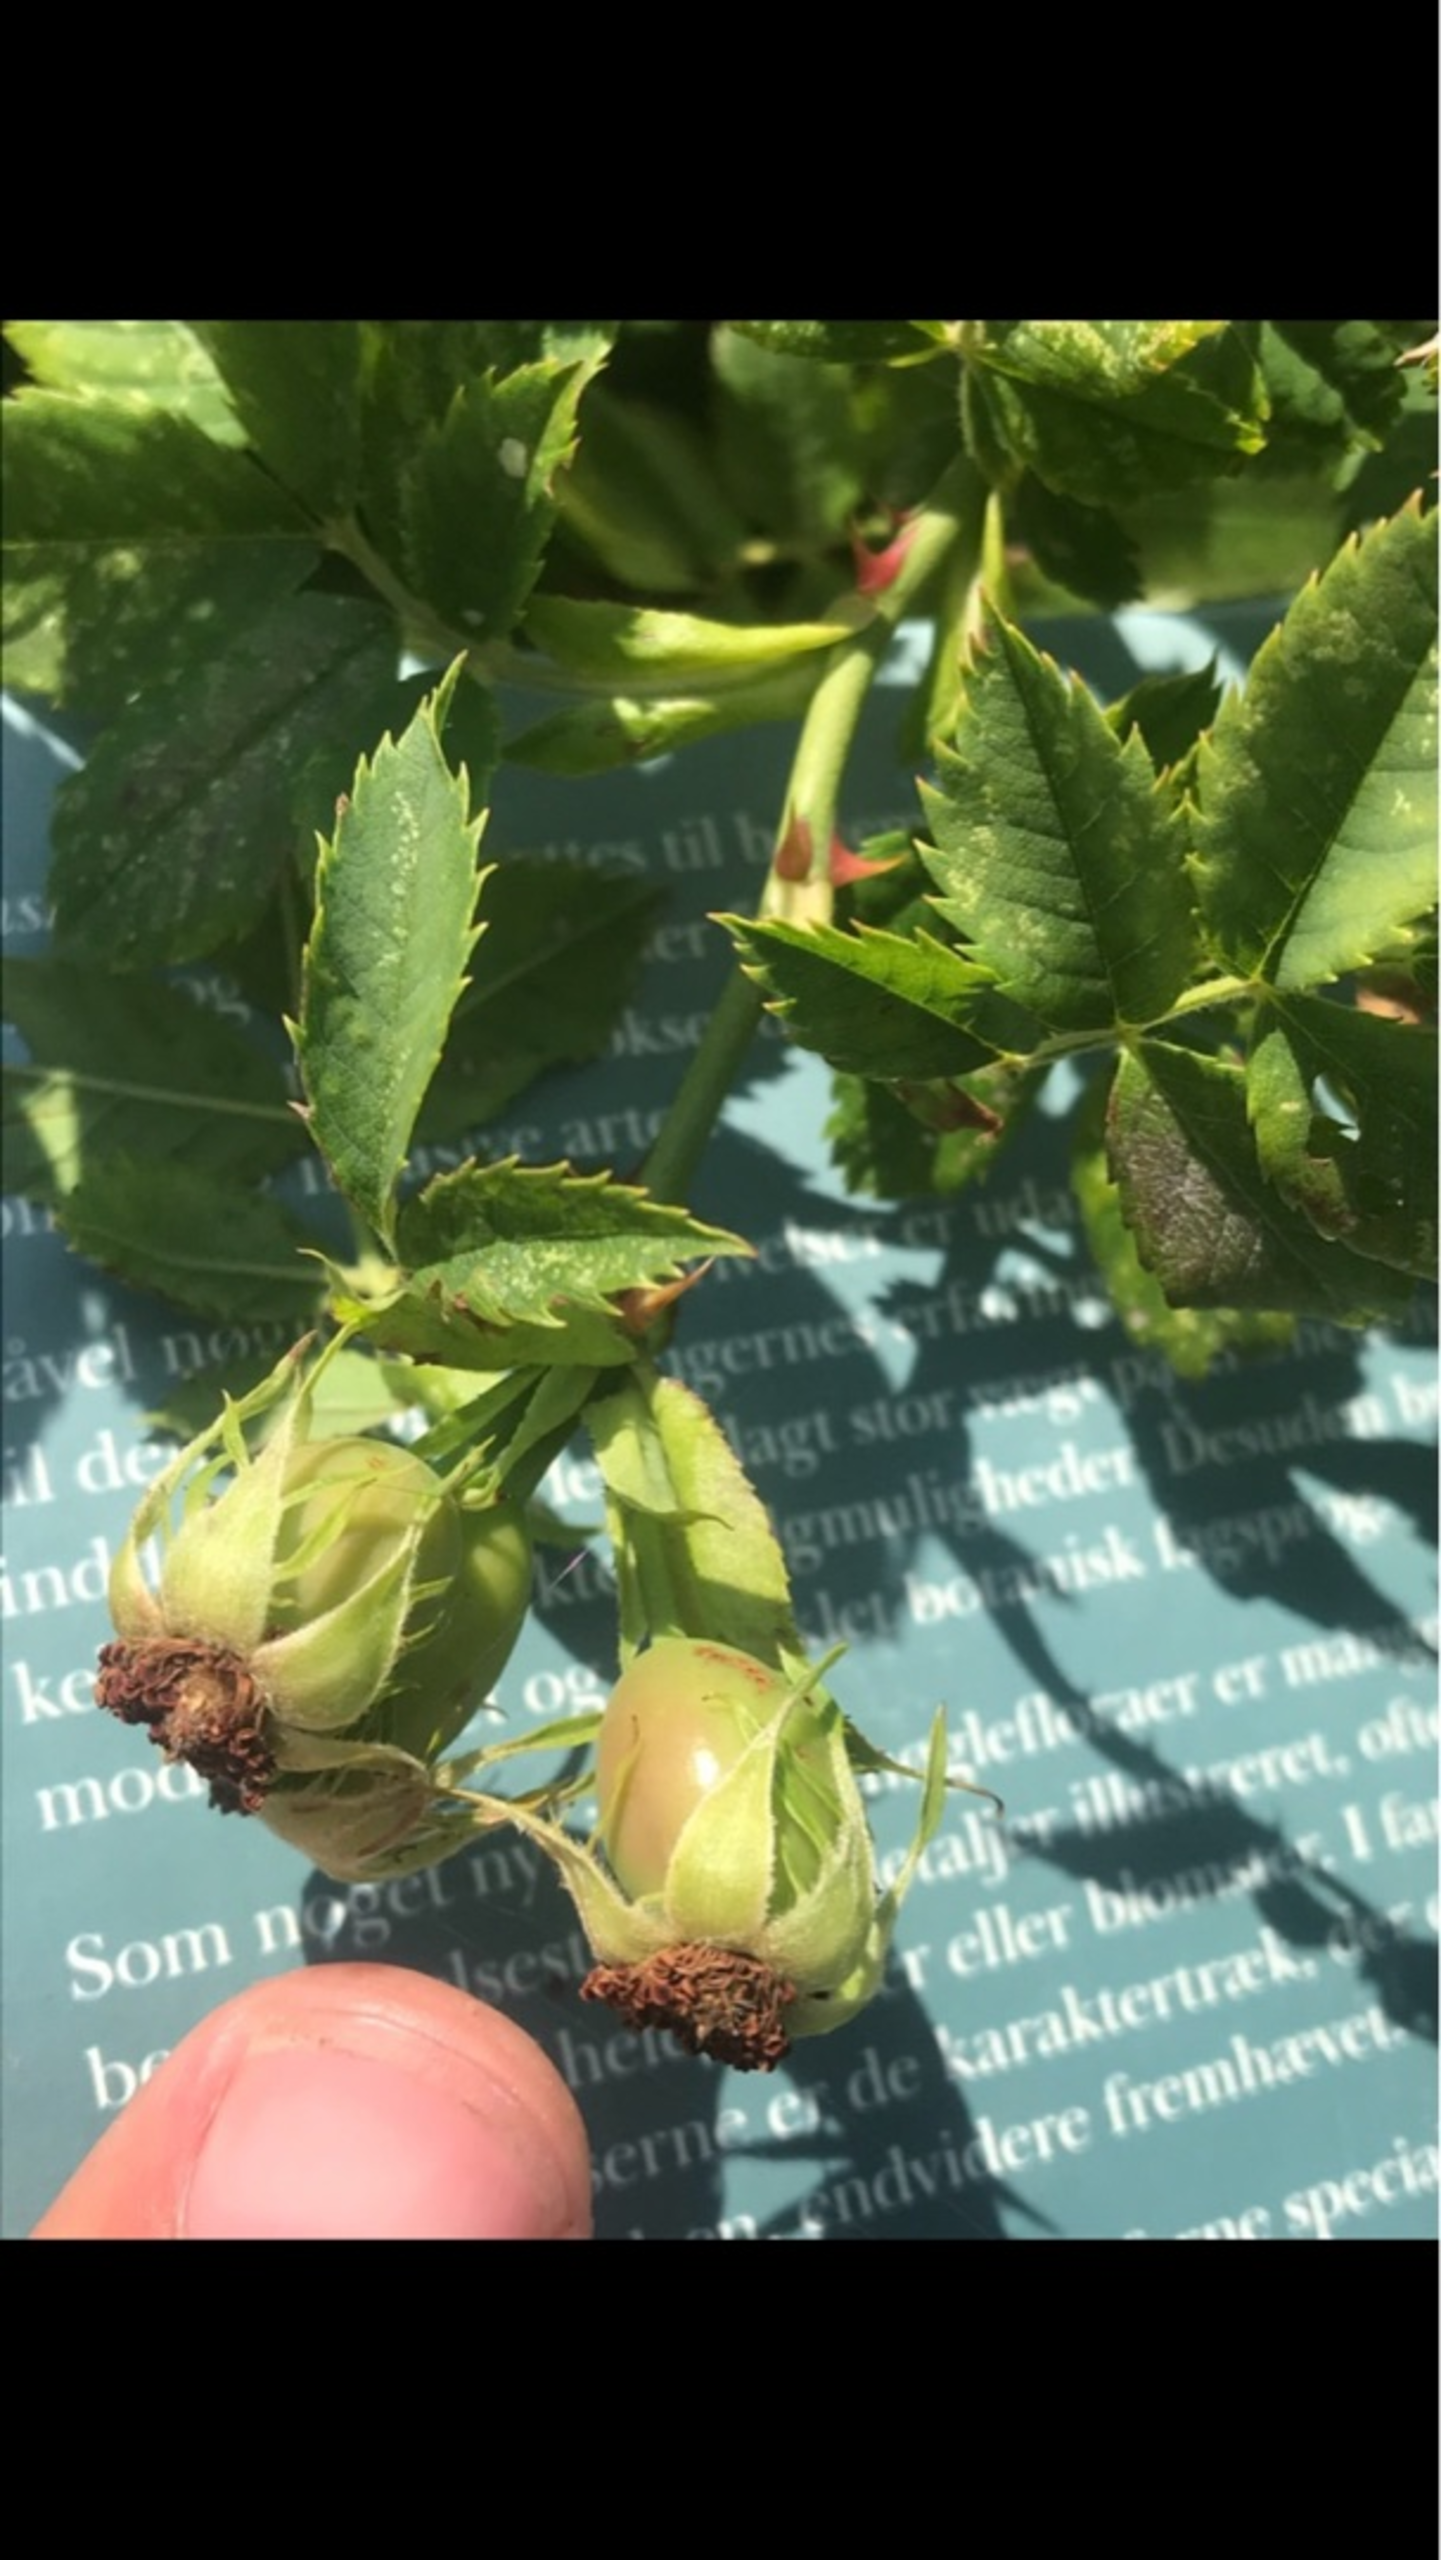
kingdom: Plantae
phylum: Tracheophyta
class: Magnoliopsida
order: Rosales
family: Rosaceae
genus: Rosa
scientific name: Rosa canina
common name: Hunde-rose
